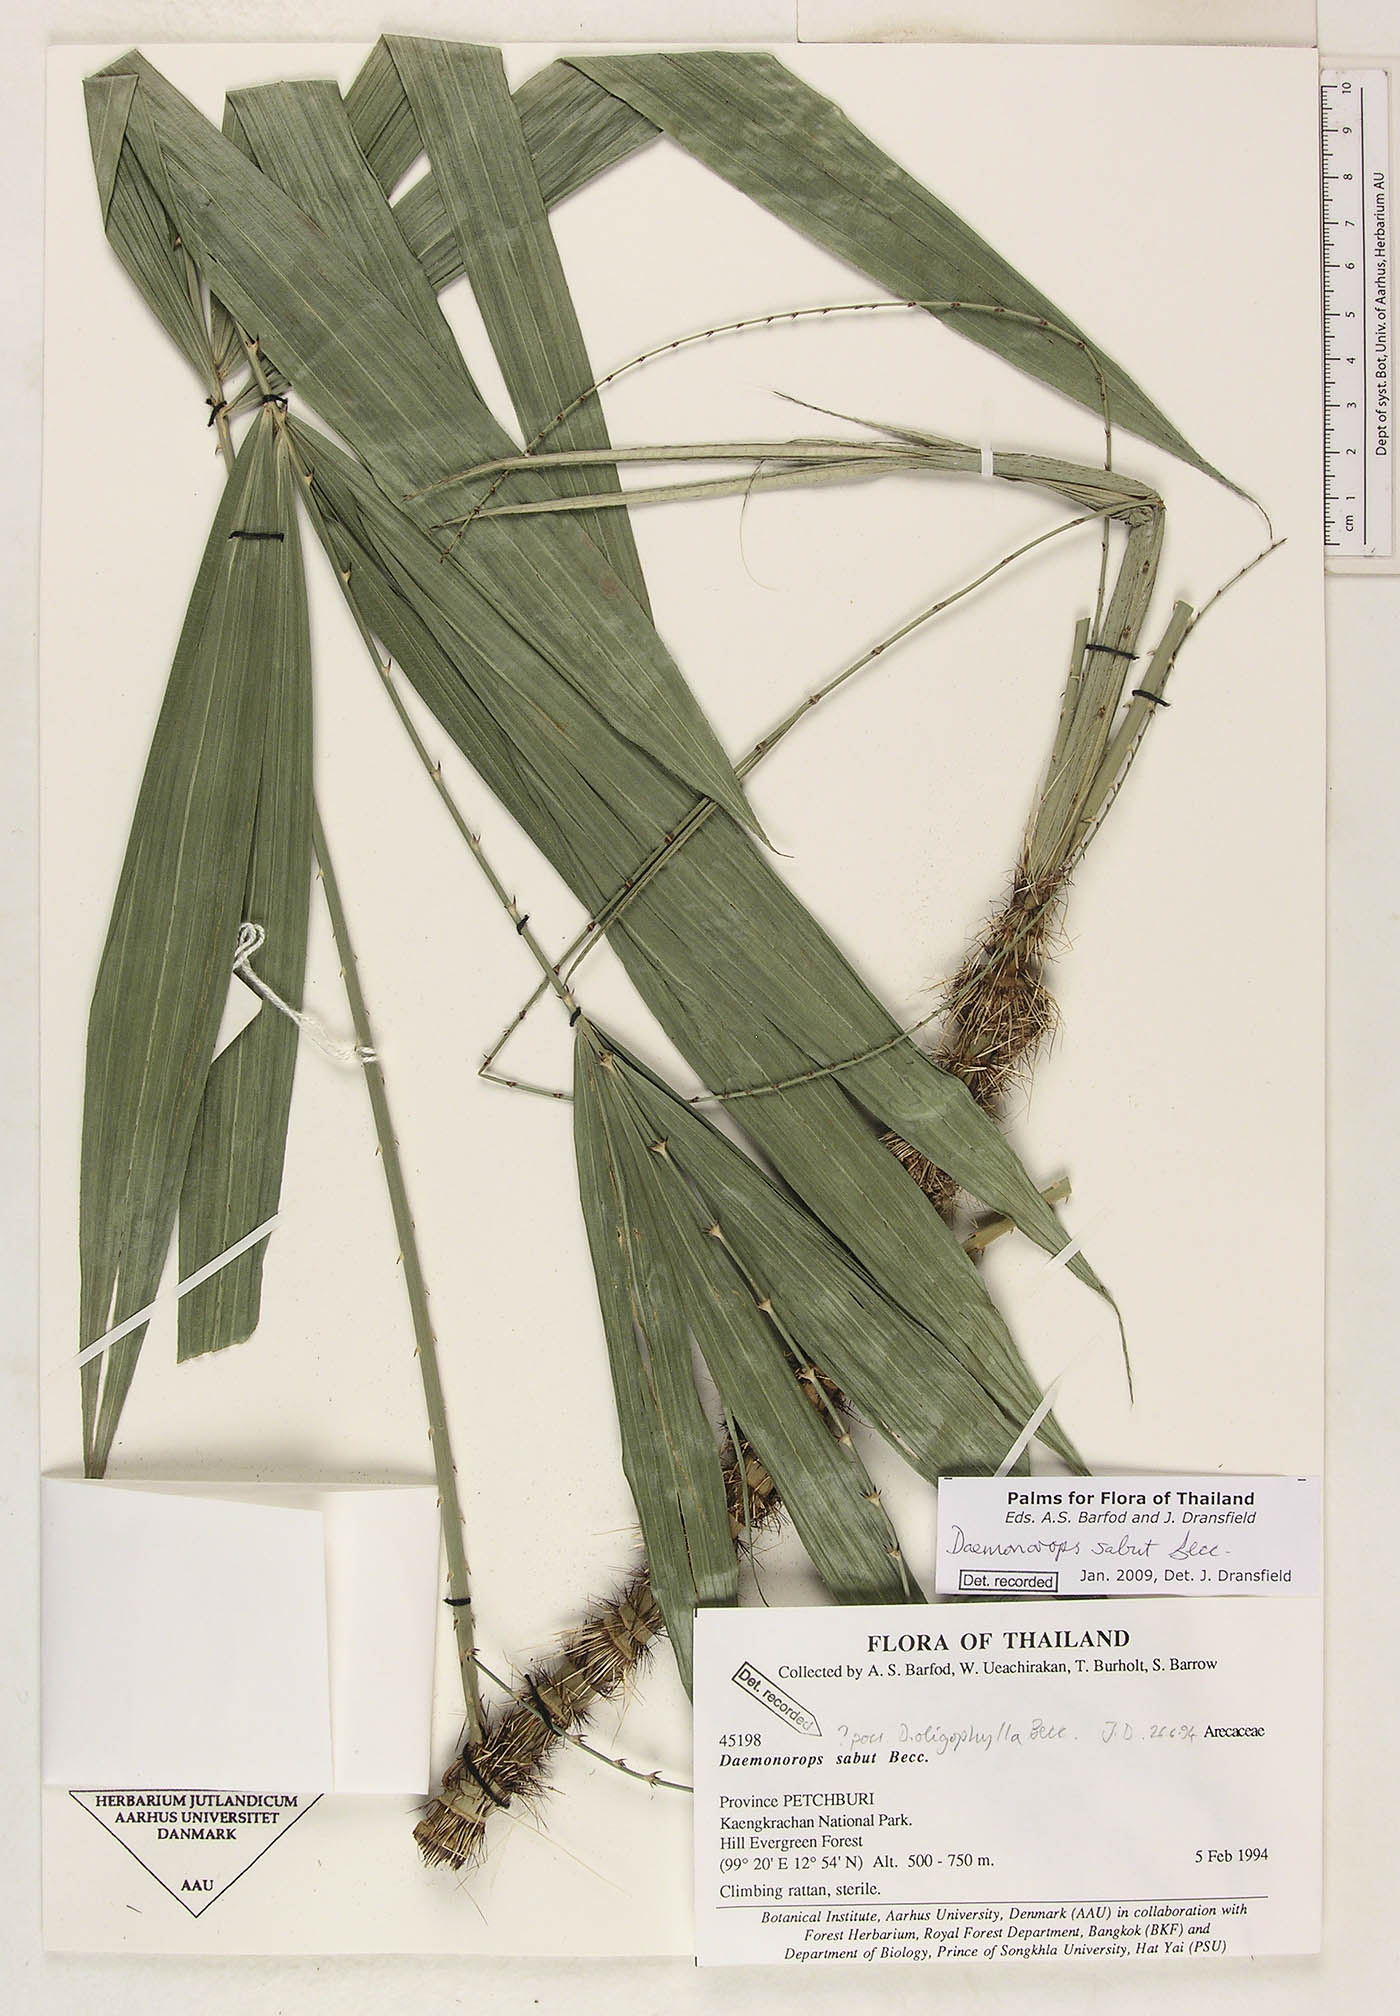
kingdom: Plantae
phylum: Tracheophyta
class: Liliopsida
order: Arecales
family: Arecaceae
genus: Calamus
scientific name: Calamus crinitus
